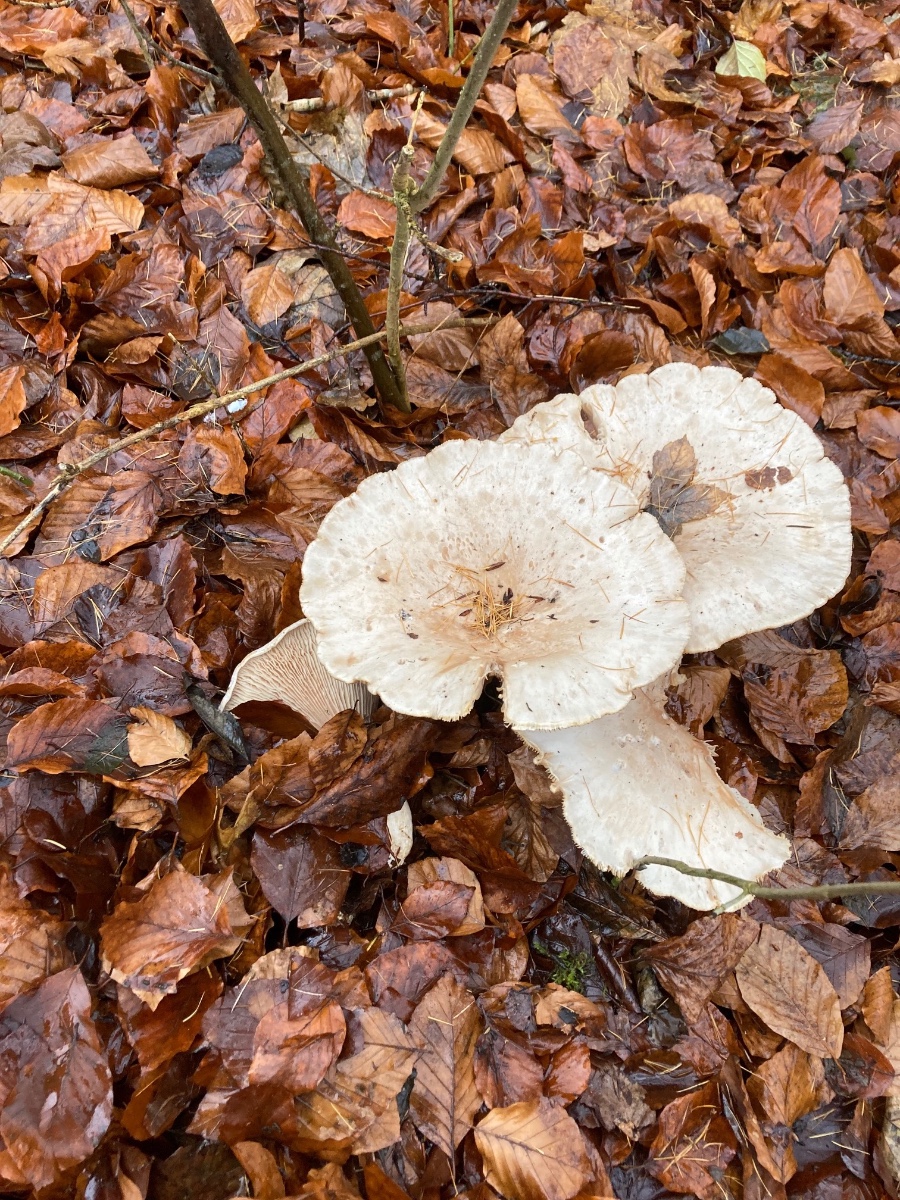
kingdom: Fungi
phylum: Basidiomycota
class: Agaricomycetes
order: Agaricales
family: Tricholomataceae
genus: Infundibulicybe
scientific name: Infundibulicybe geotropa
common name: stor tragthat
